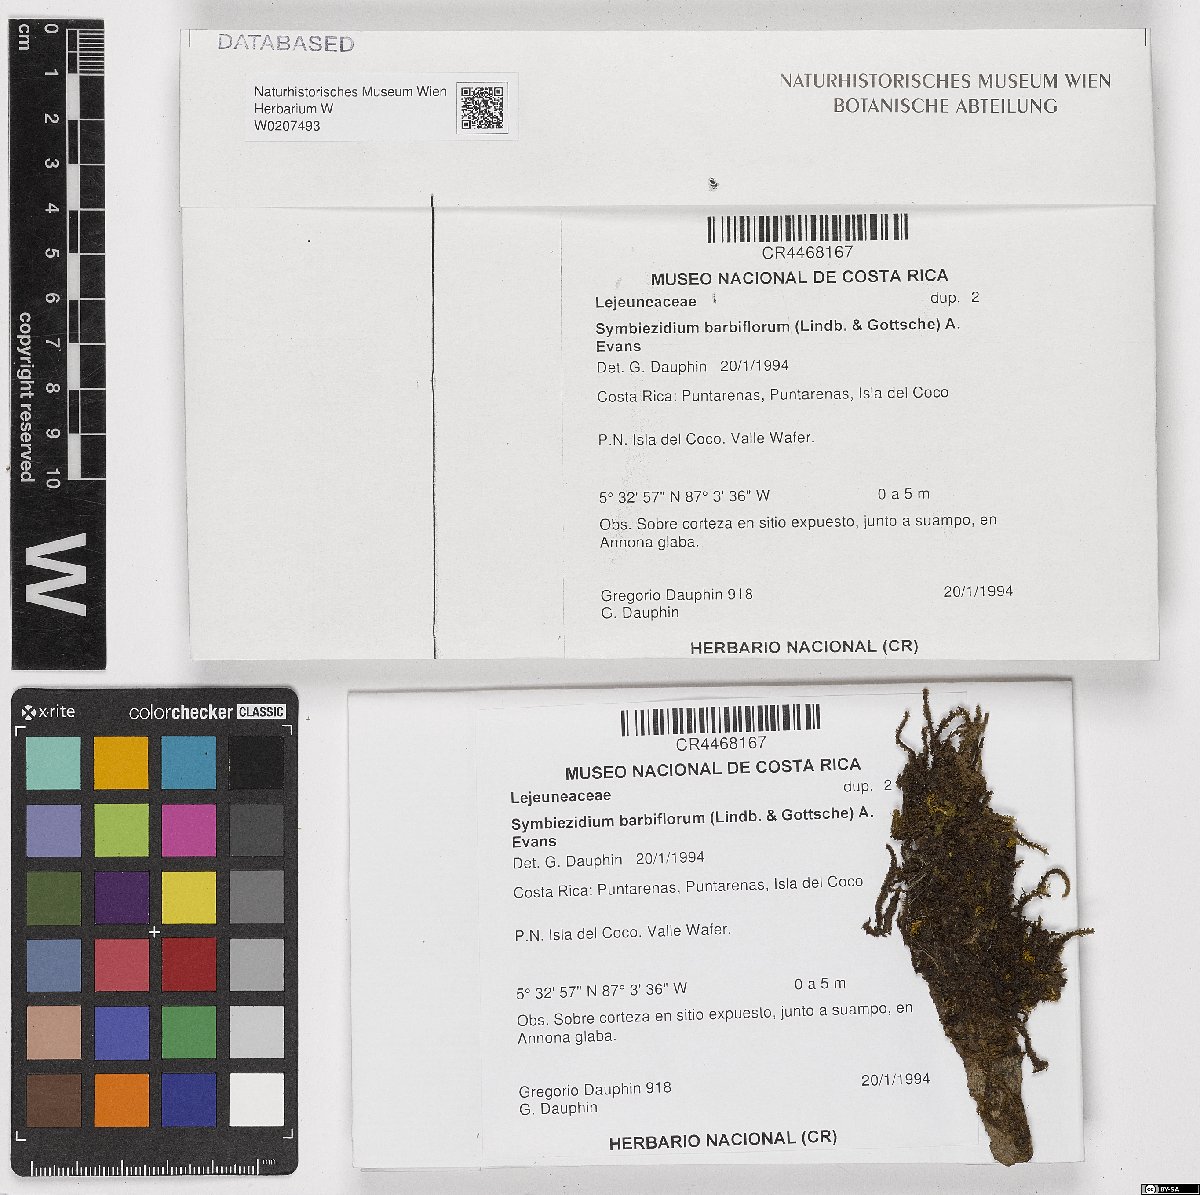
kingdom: Plantae
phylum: Marchantiophyta
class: Jungermanniopsida
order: Porellales
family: Lejeuneaceae
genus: Symbiezidium
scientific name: Symbiezidium barbiflorum
